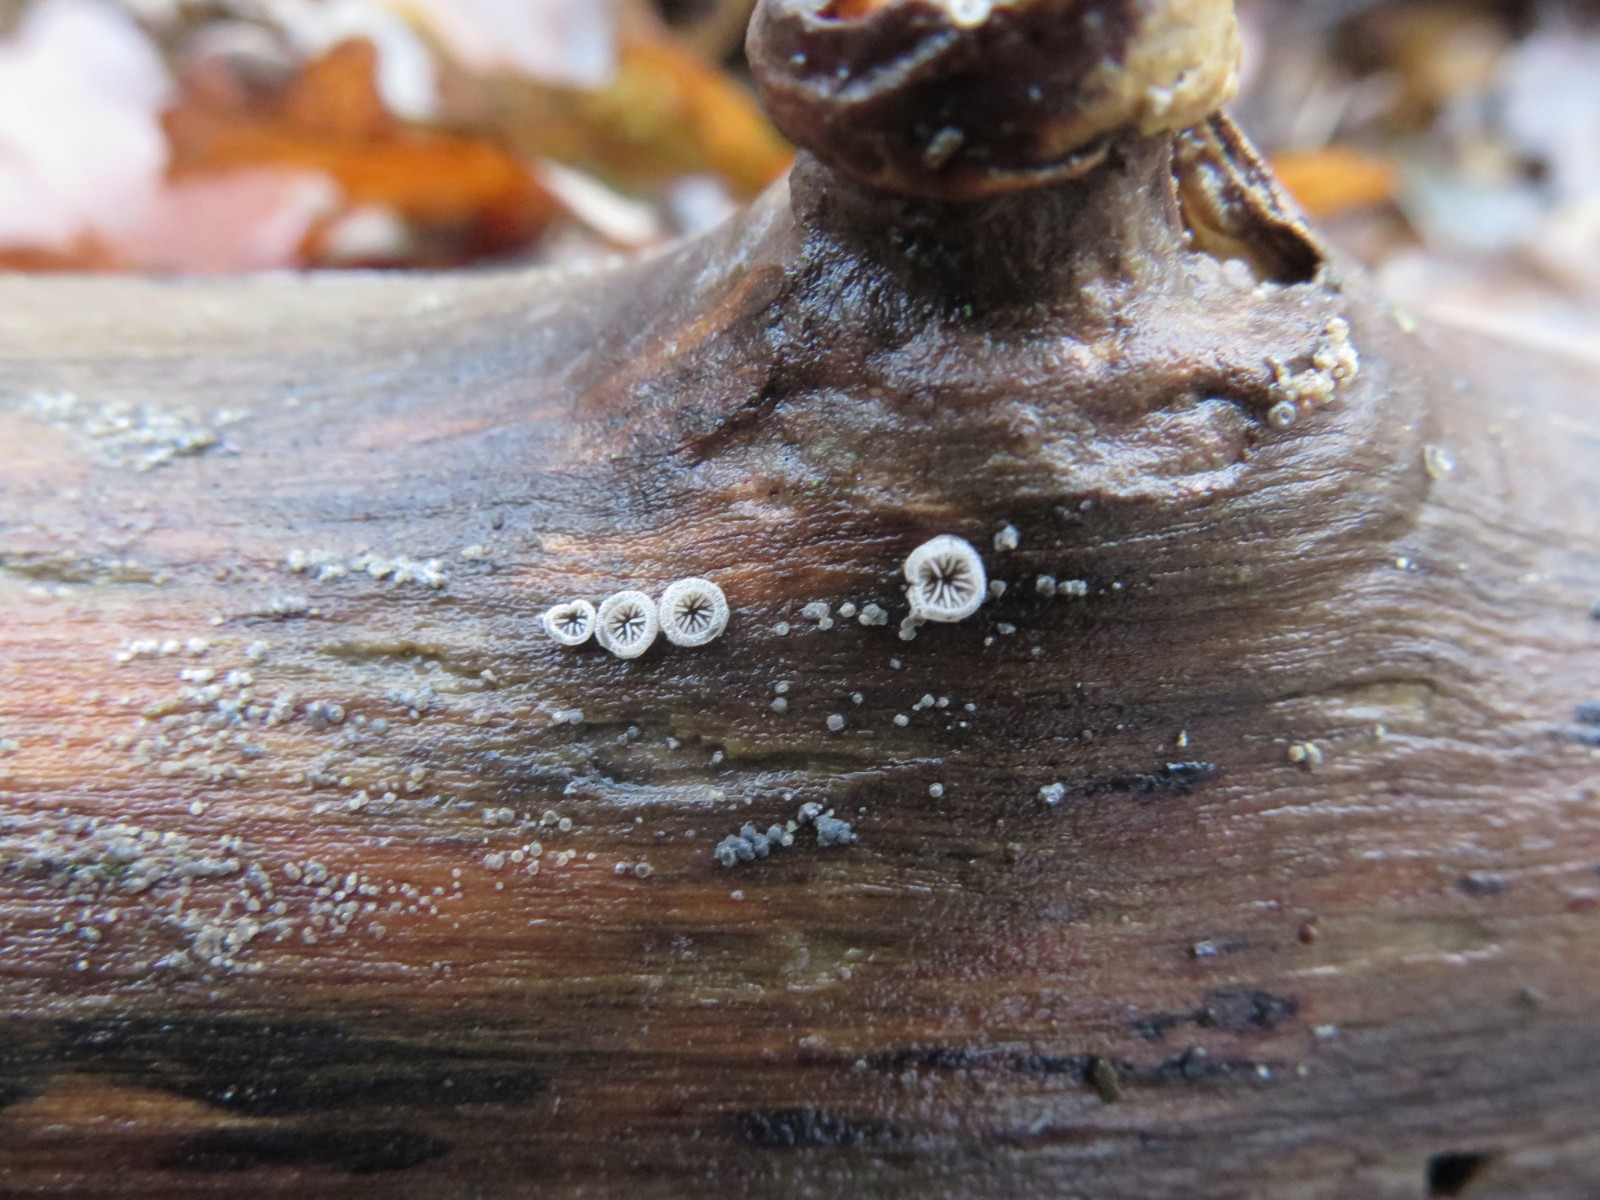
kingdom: Fungi
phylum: Basidiomycota
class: Agaricomycetes
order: Agaricales
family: Pleurotaceae
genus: Resupinatus
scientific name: Resupinatus applicatus
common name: lysfiltet barkhat
